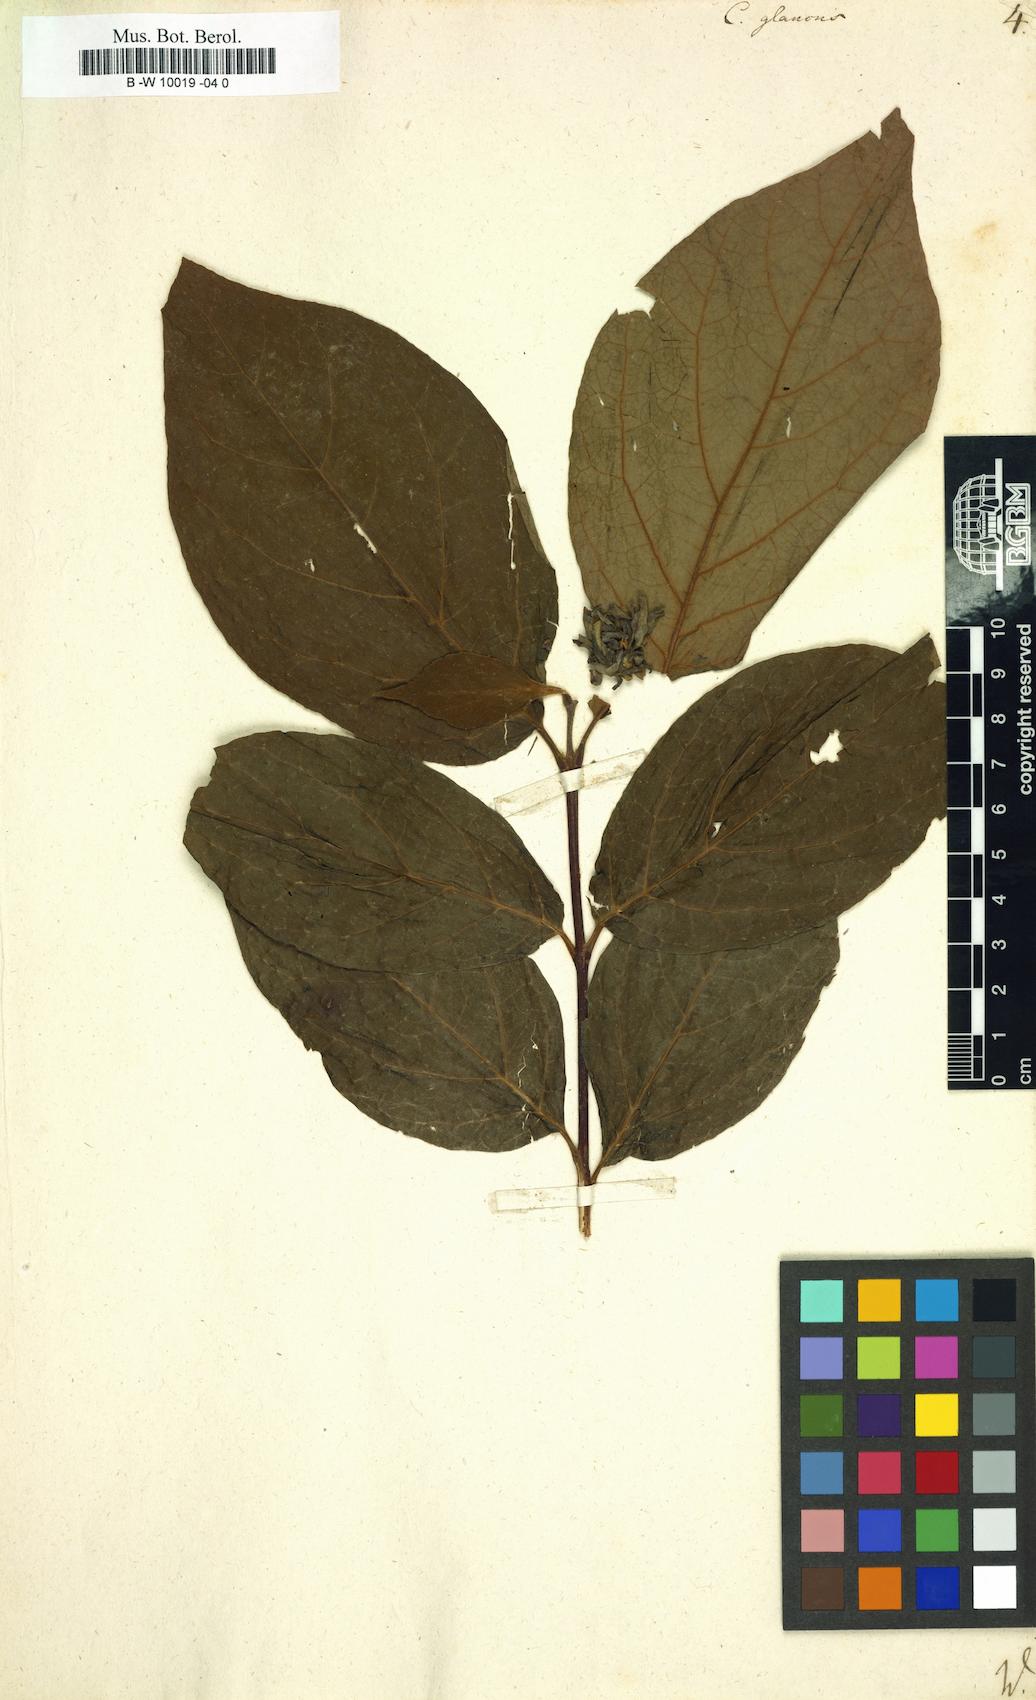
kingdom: Plantae
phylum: Tracheophyta
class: Magnoliopsida
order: Laurales
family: Calycanthaceae
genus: Calycanthus
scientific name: Calycanthus floridus
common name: Carolina-allspice
